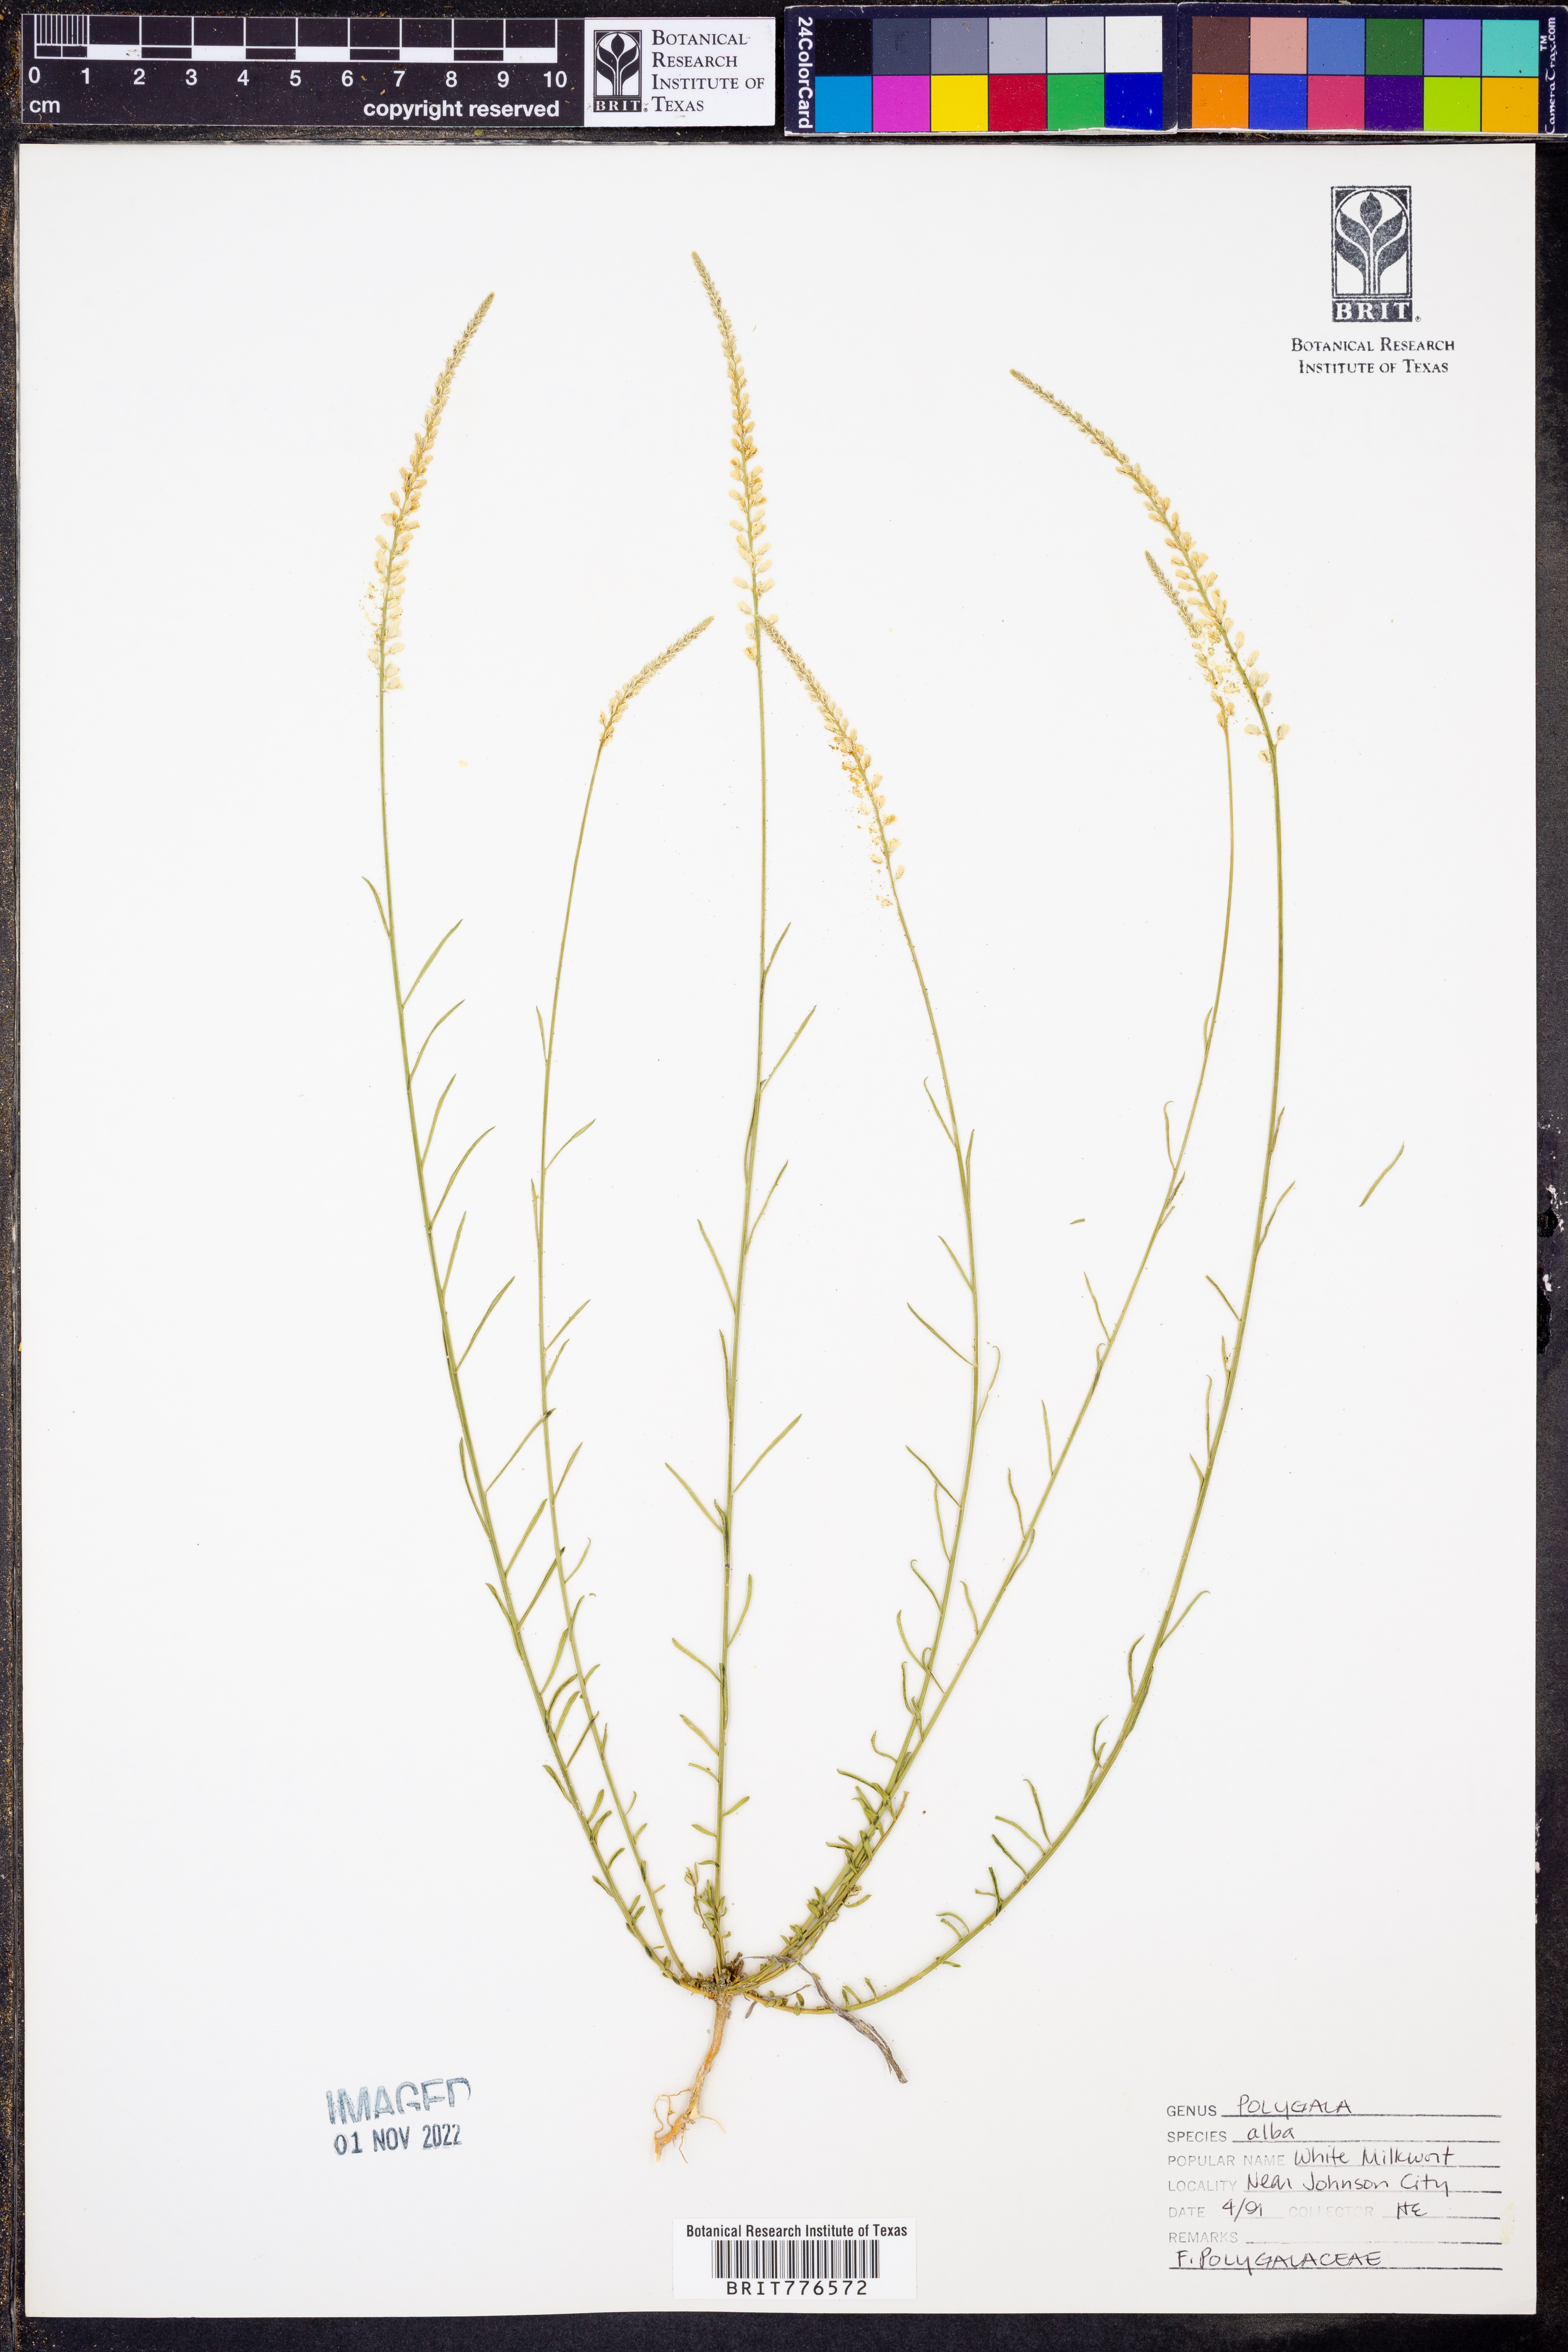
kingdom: Plantae
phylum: Tracheophyta
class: Magnoliopsida
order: Fabales
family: Polygalaceae
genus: Polygala
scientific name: Polygala alba
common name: White milkwort
